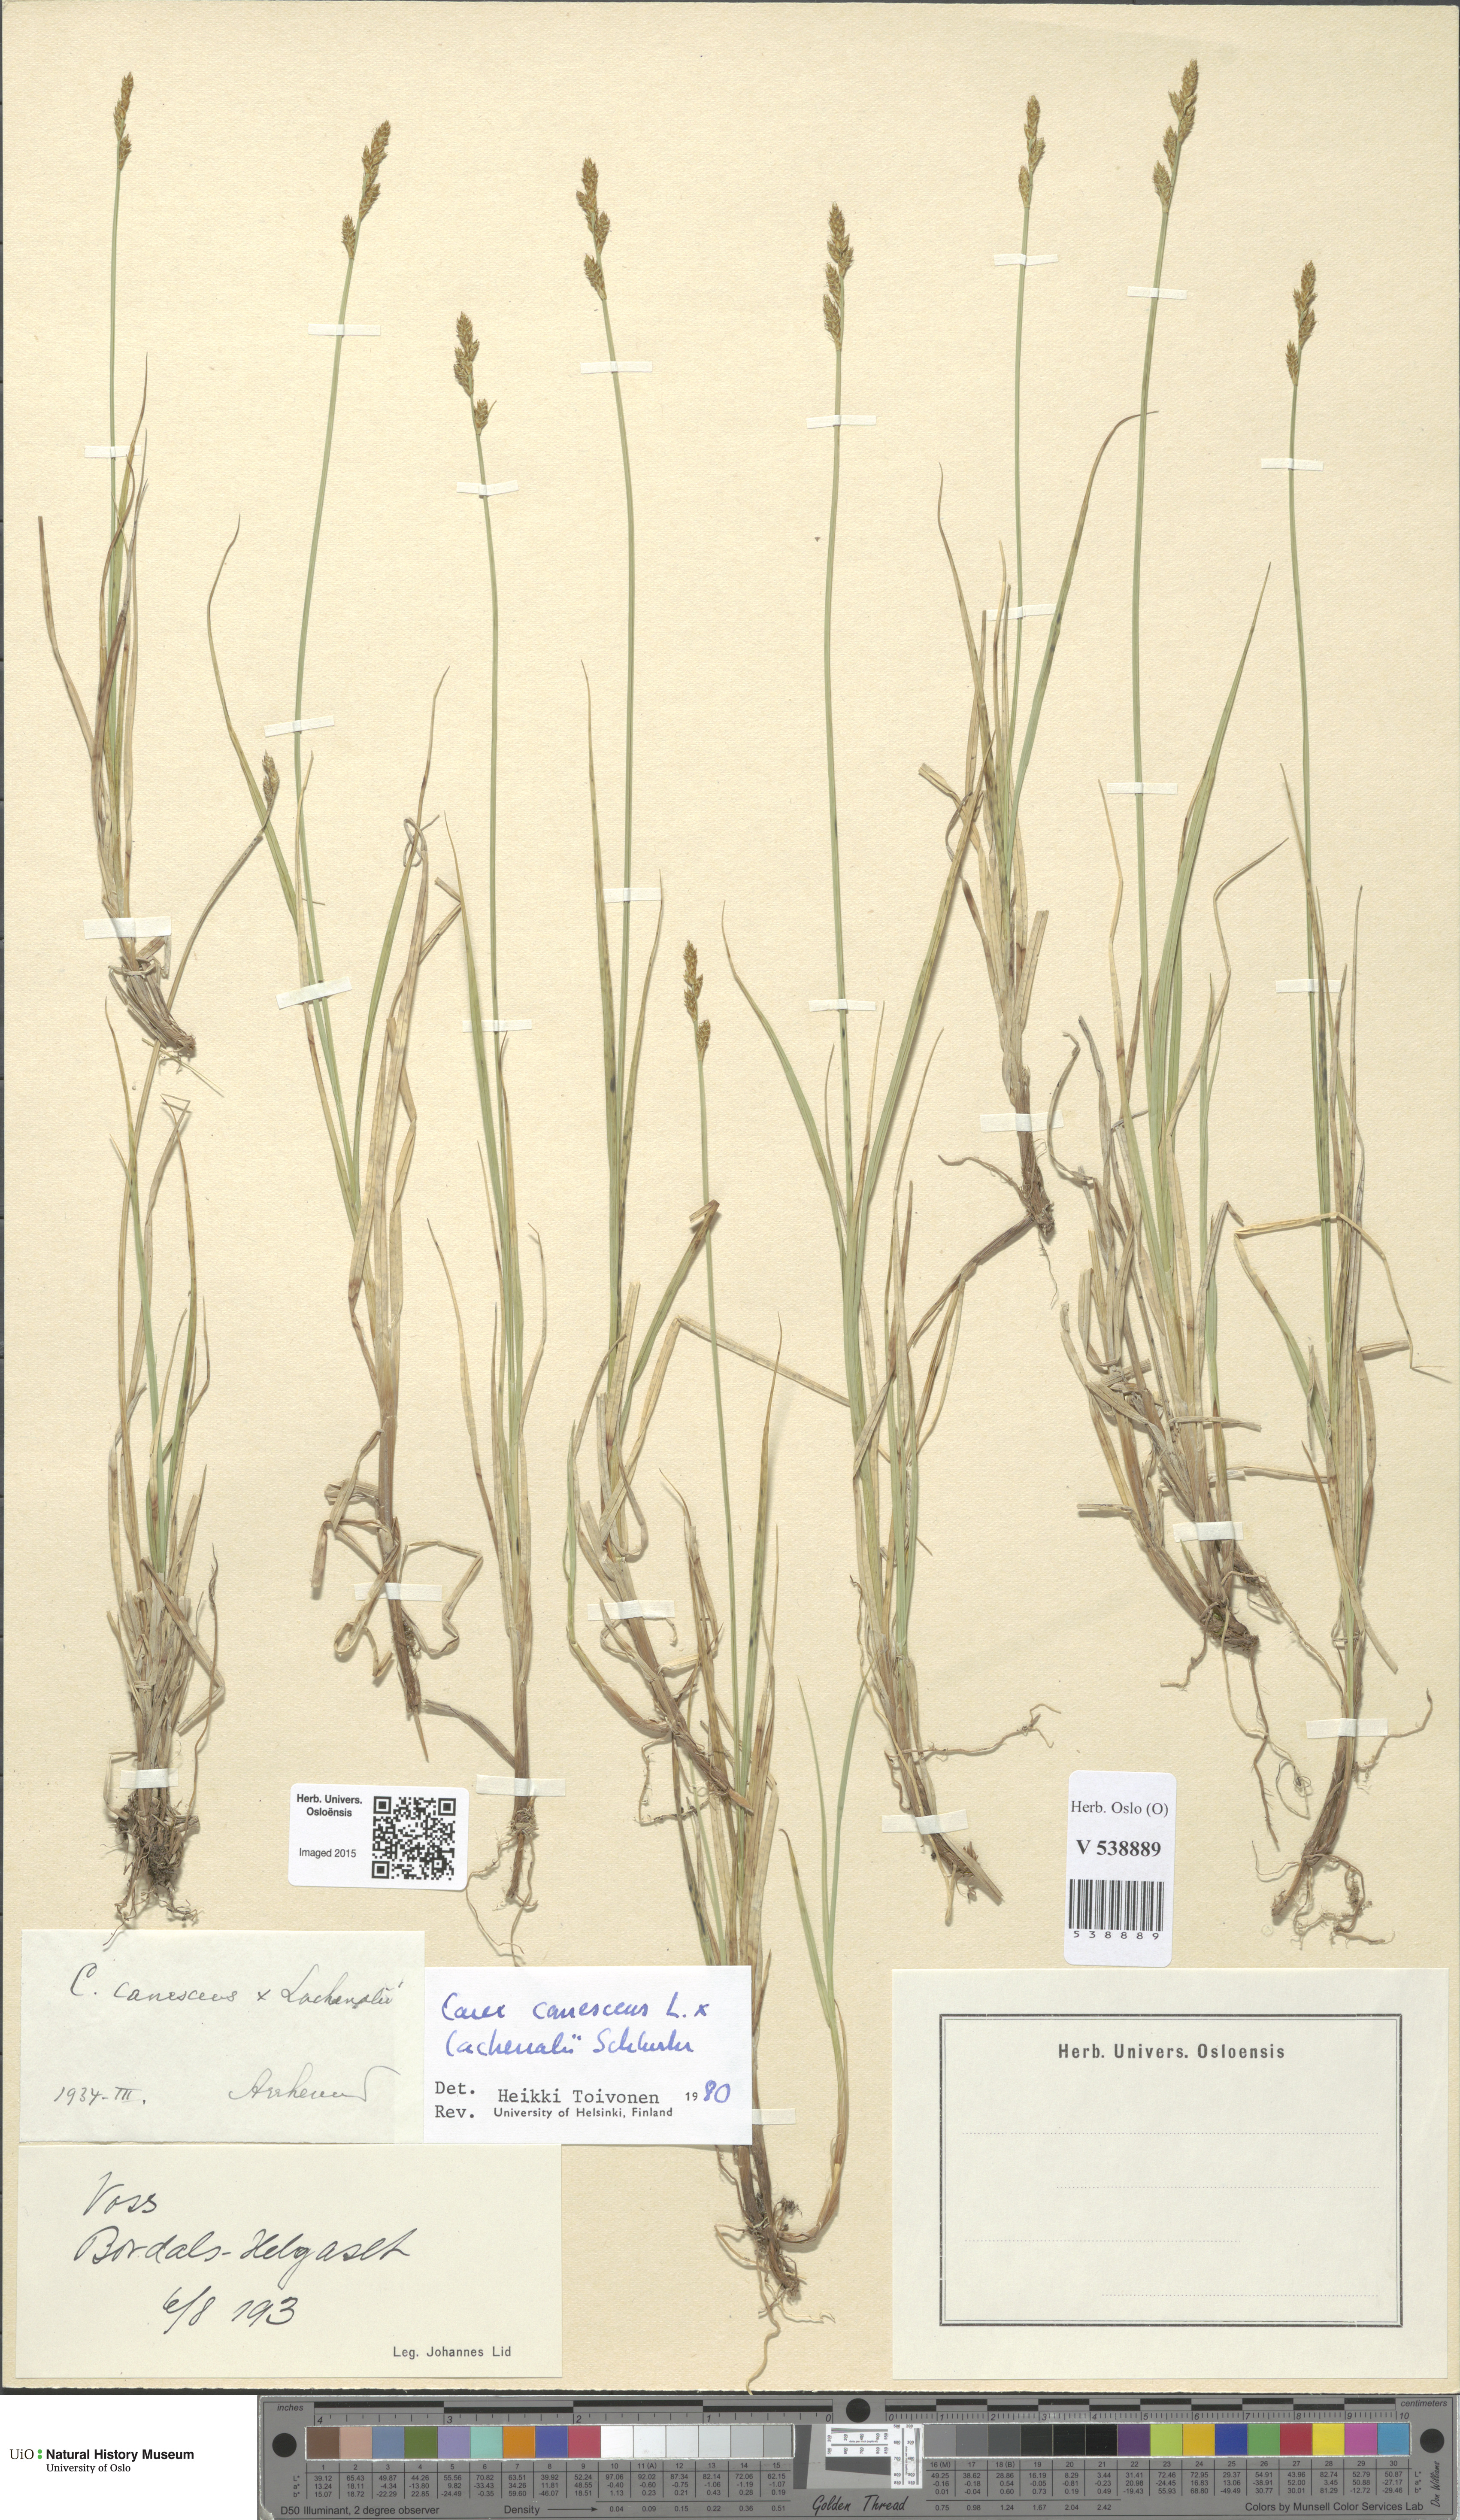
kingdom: Plantae
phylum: Tracheophyta
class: Liliopsida
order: Poales
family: Cyperaceae
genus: Carex
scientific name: Carex
